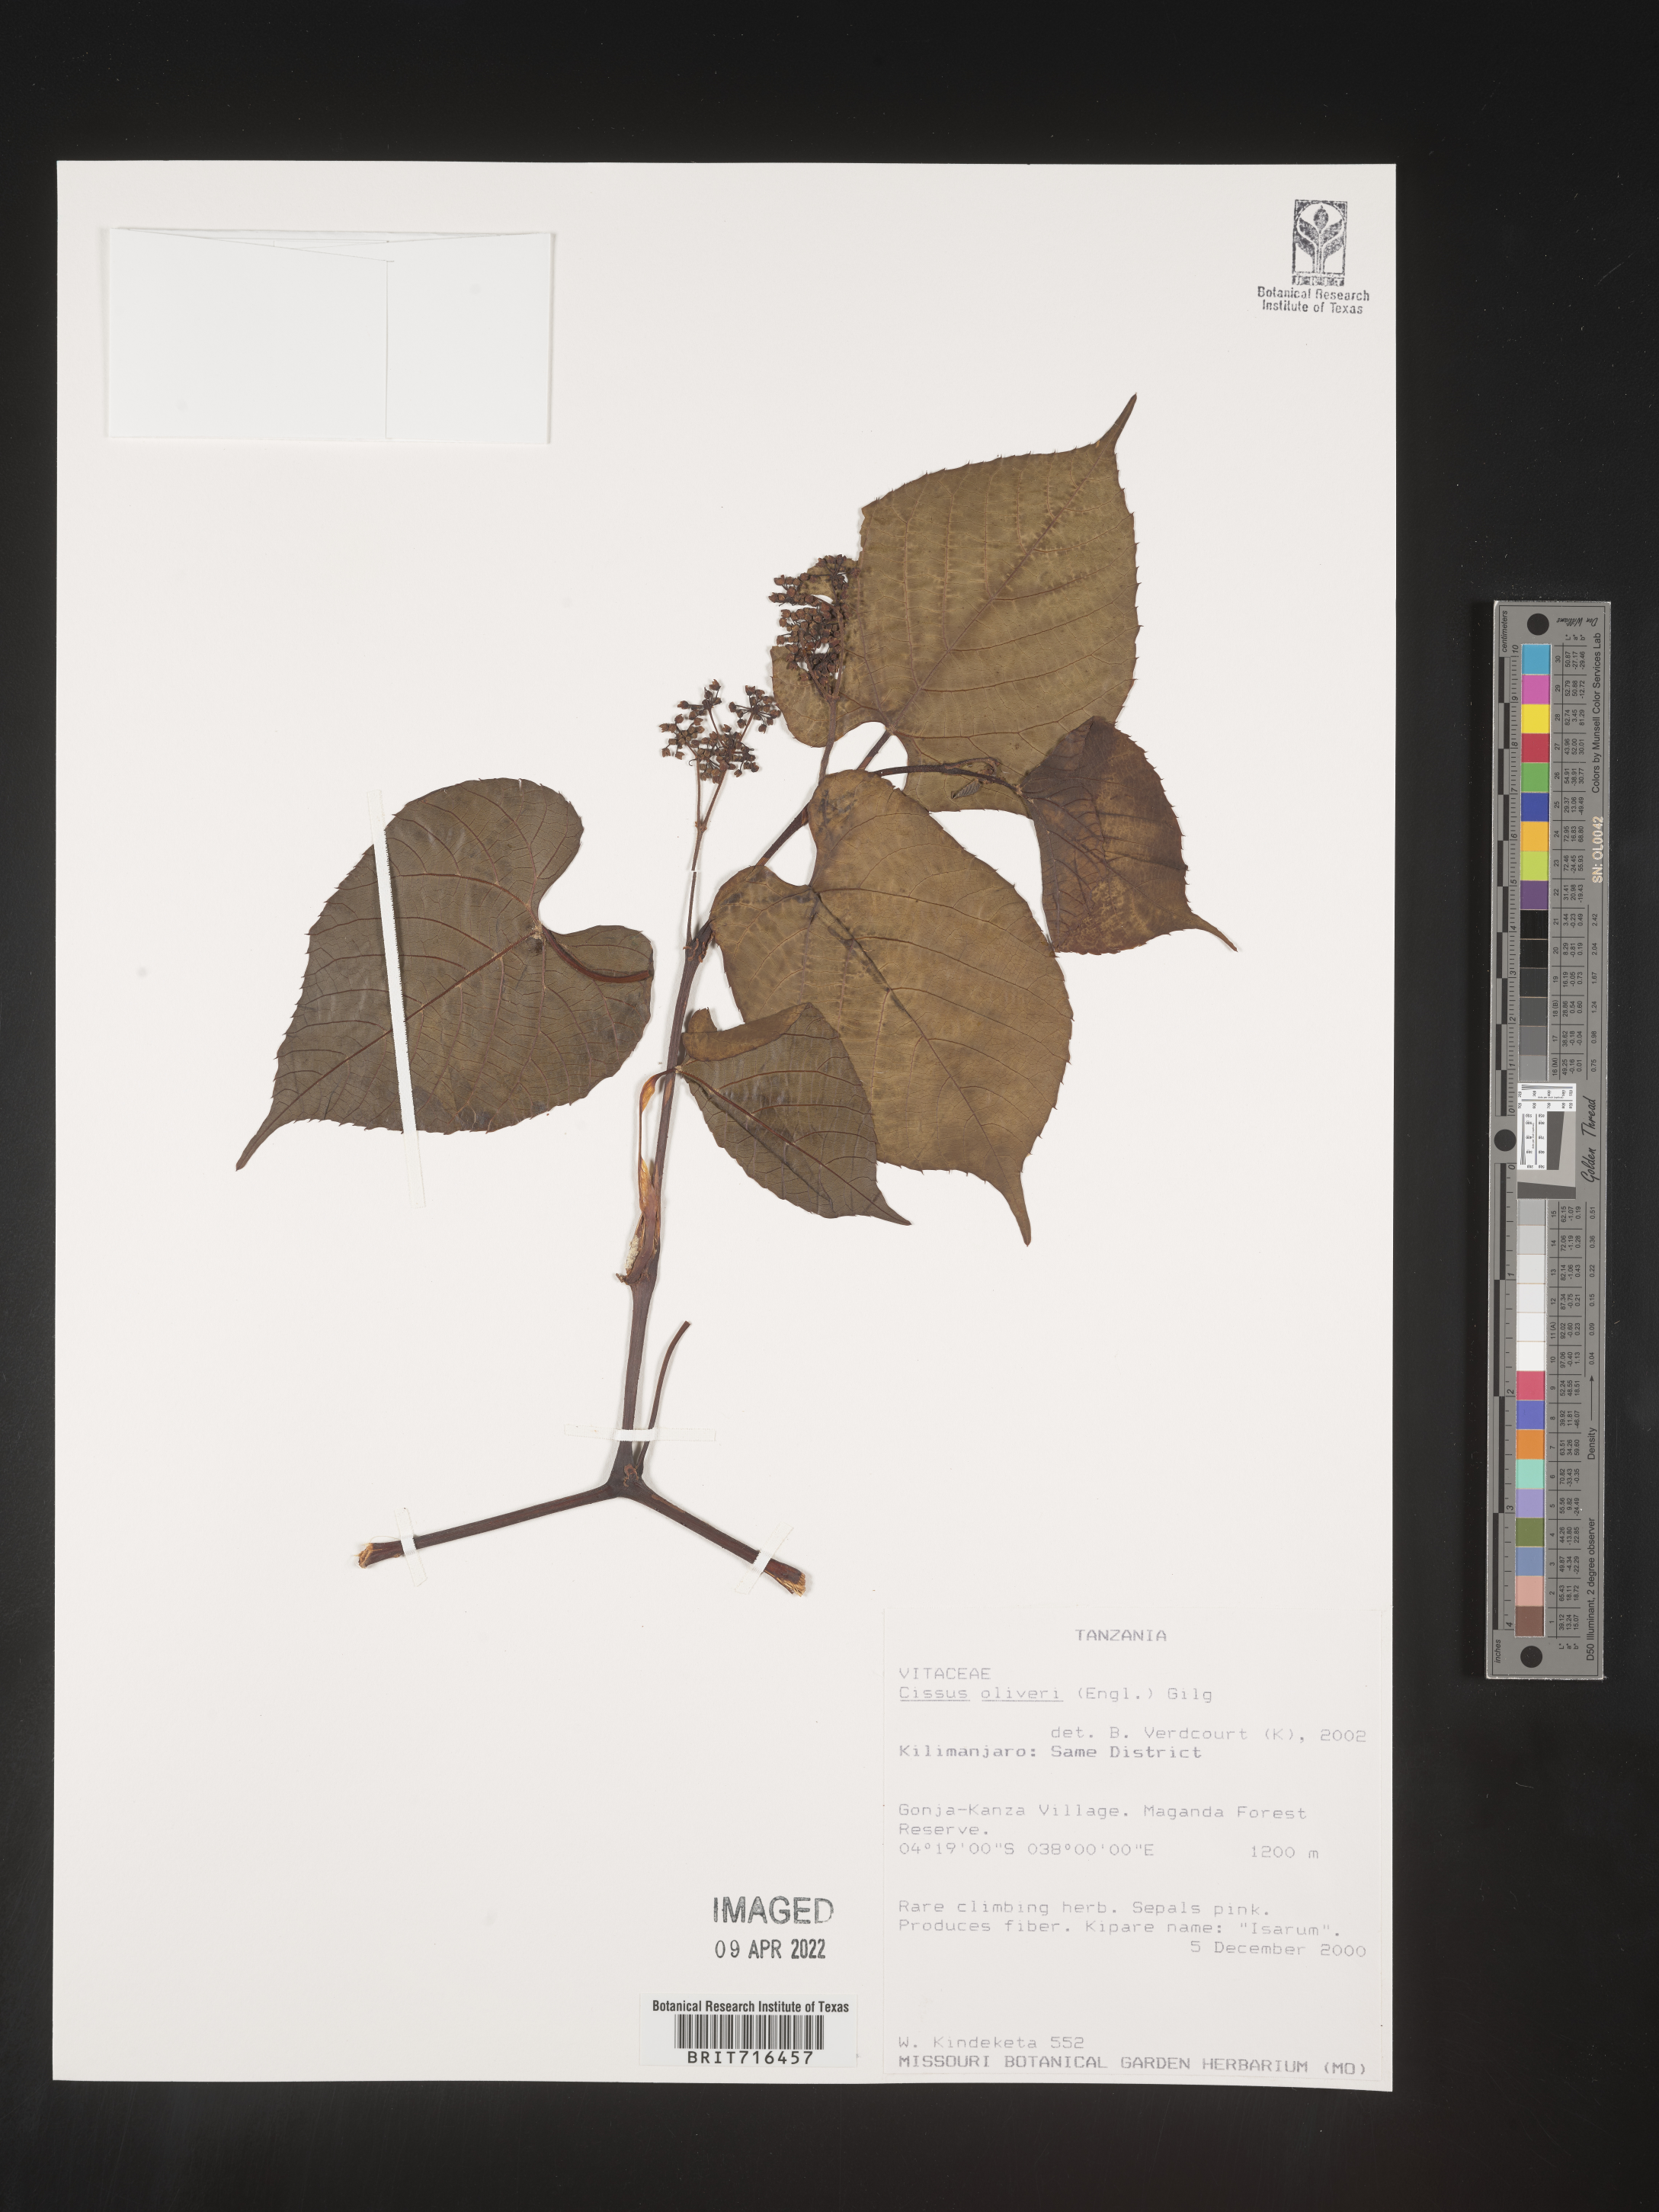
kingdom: Plantae
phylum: Tracheophyta
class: Magnoliopsida
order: Vitales
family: Vitaceae
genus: Cissus
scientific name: Cissus
